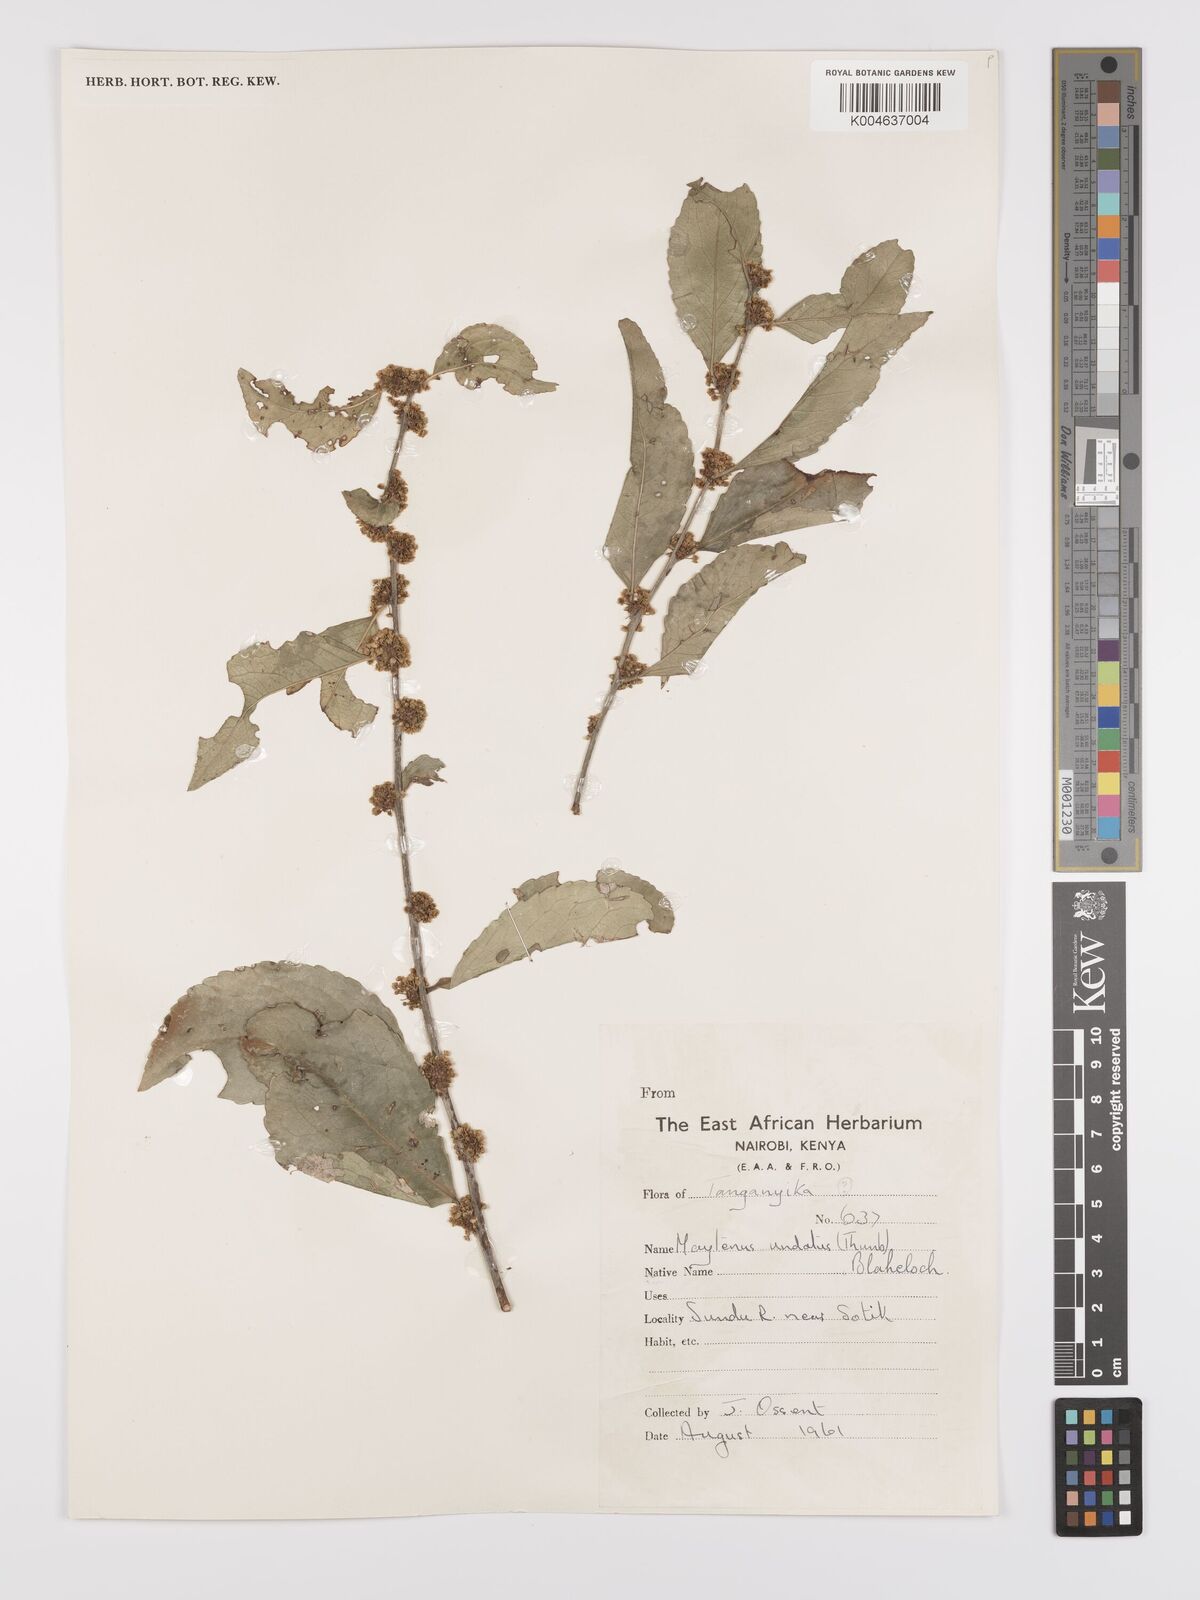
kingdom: Plantae
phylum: Tracheophyta
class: Magnoliopsida
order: Celastrales
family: Celastraceae
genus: Gymnosporia
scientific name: Gymnosporia undata
